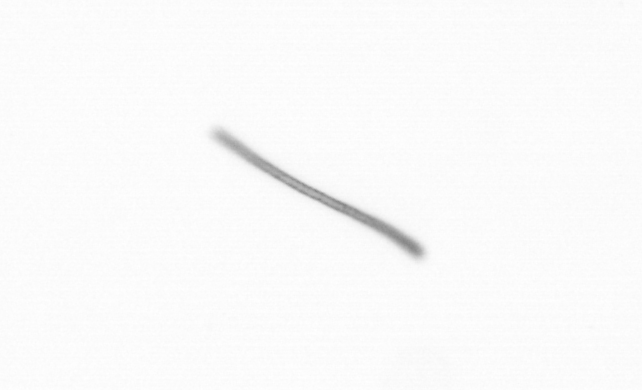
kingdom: Chromista
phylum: Ochrophyta
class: Bacillariophyceae
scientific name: Bacillariophyceae
